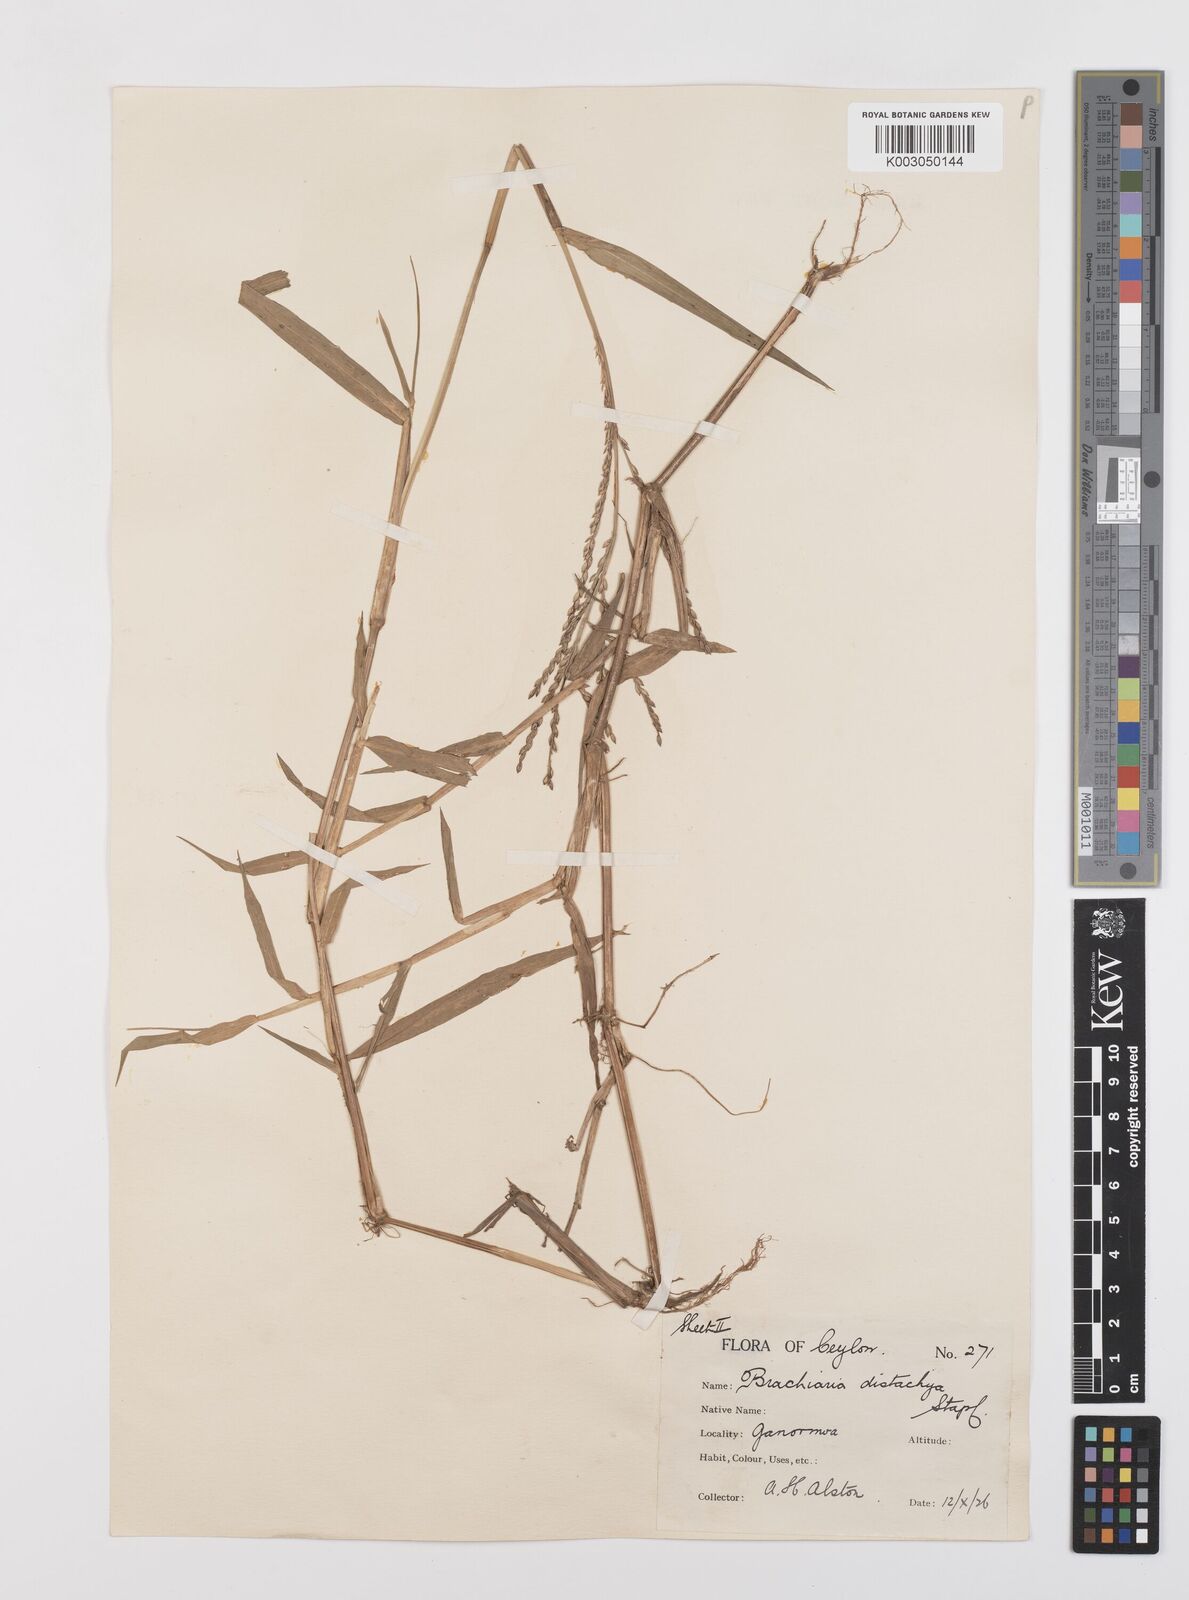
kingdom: Plantae
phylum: Tracheophyta
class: Liliopsida
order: Poales
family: Poaceae
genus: Urochloa
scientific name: Urochloa subquadripara
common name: Armgrass millet
